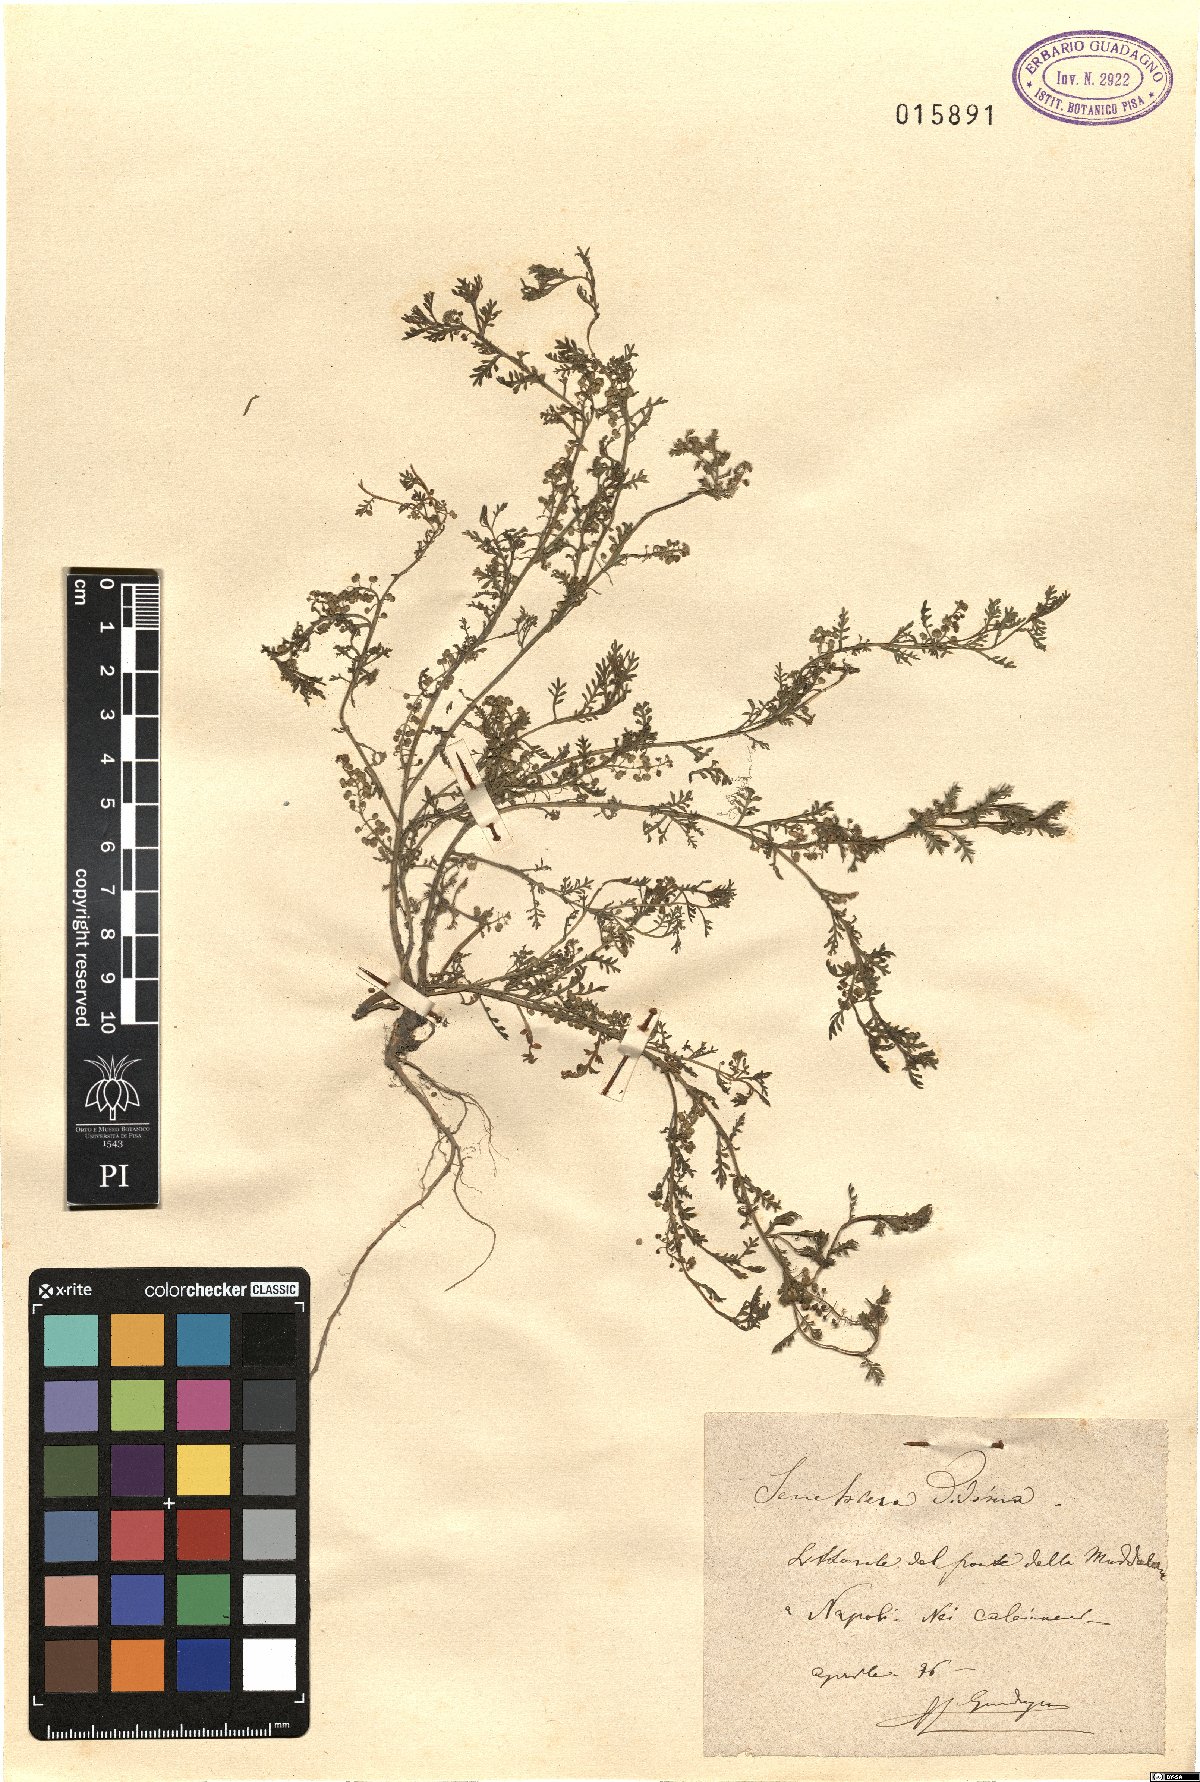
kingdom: Plantae
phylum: Tracheophyta
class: Magnoliopsida
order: Brassicales
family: Brassicaceae
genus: Lepidium
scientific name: Lepidium didymum
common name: Lesser swinecress
